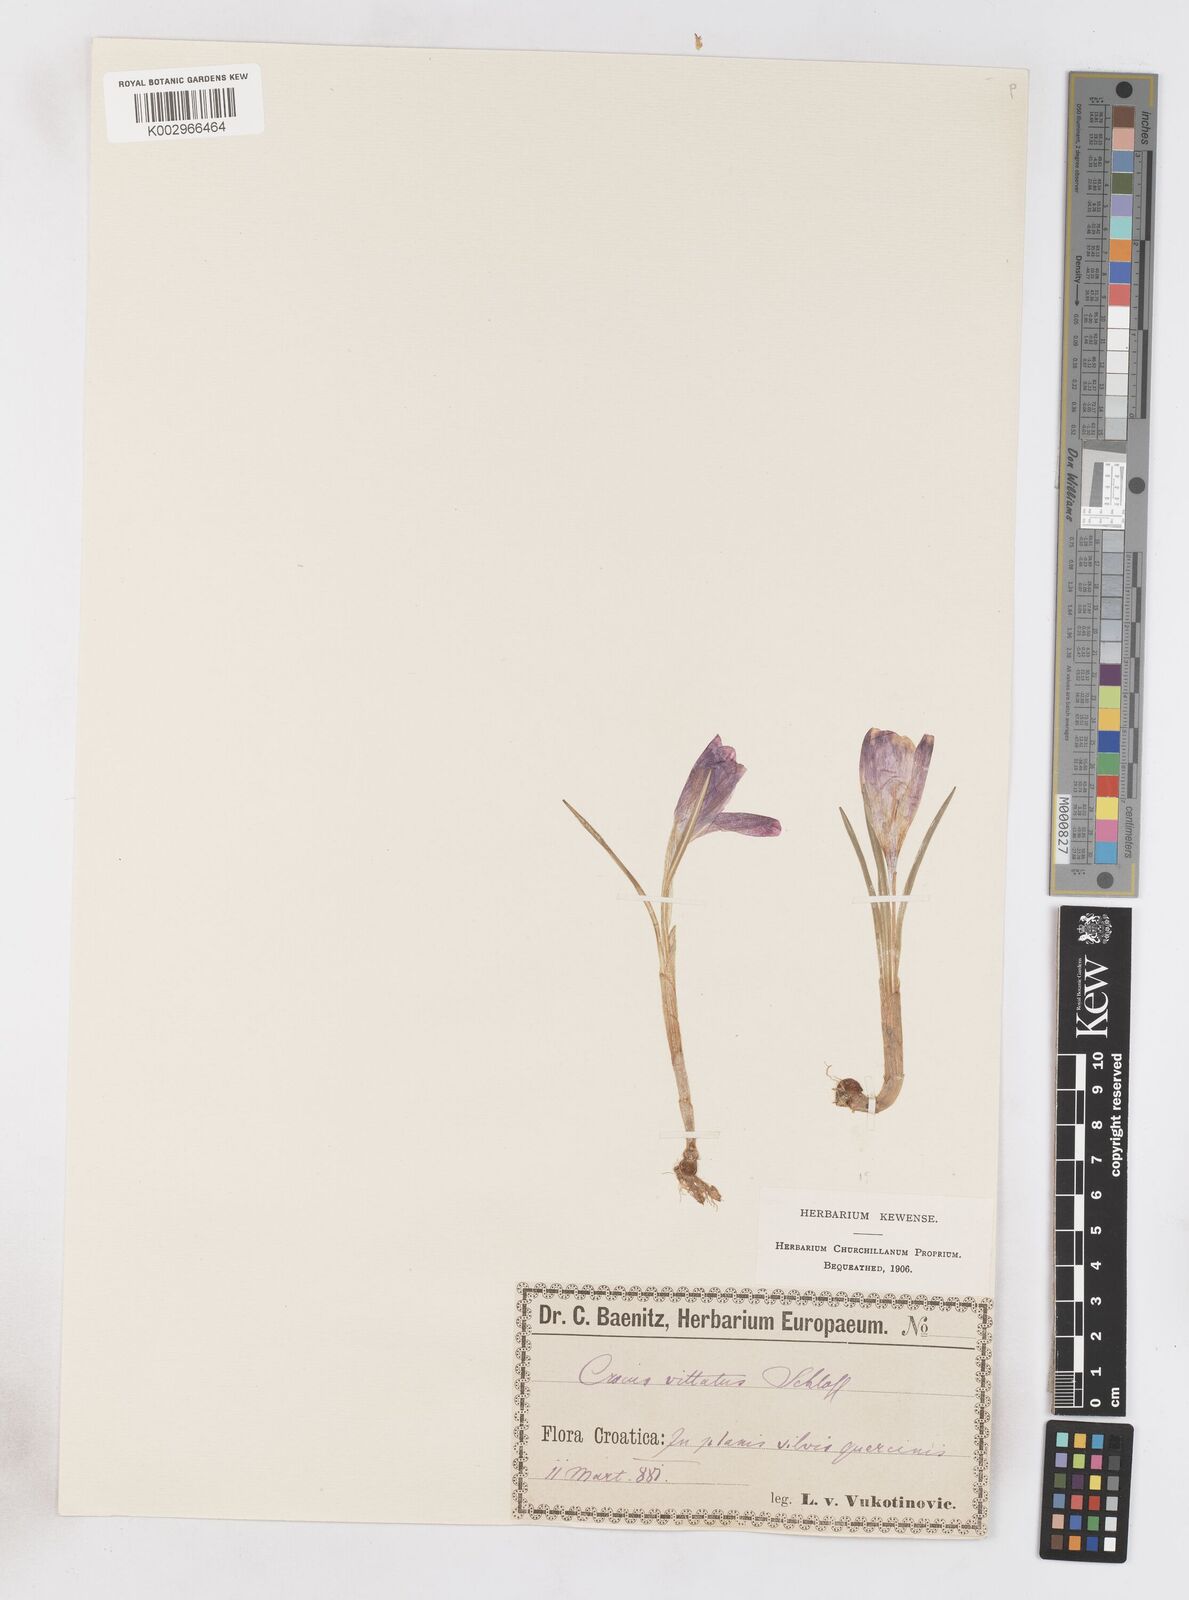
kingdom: Plantae
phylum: Tracheophyta
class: Liliopsida
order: Asparagales
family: Iridaceae
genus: Crocus
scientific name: Crocus vernus
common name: Spring crocus
